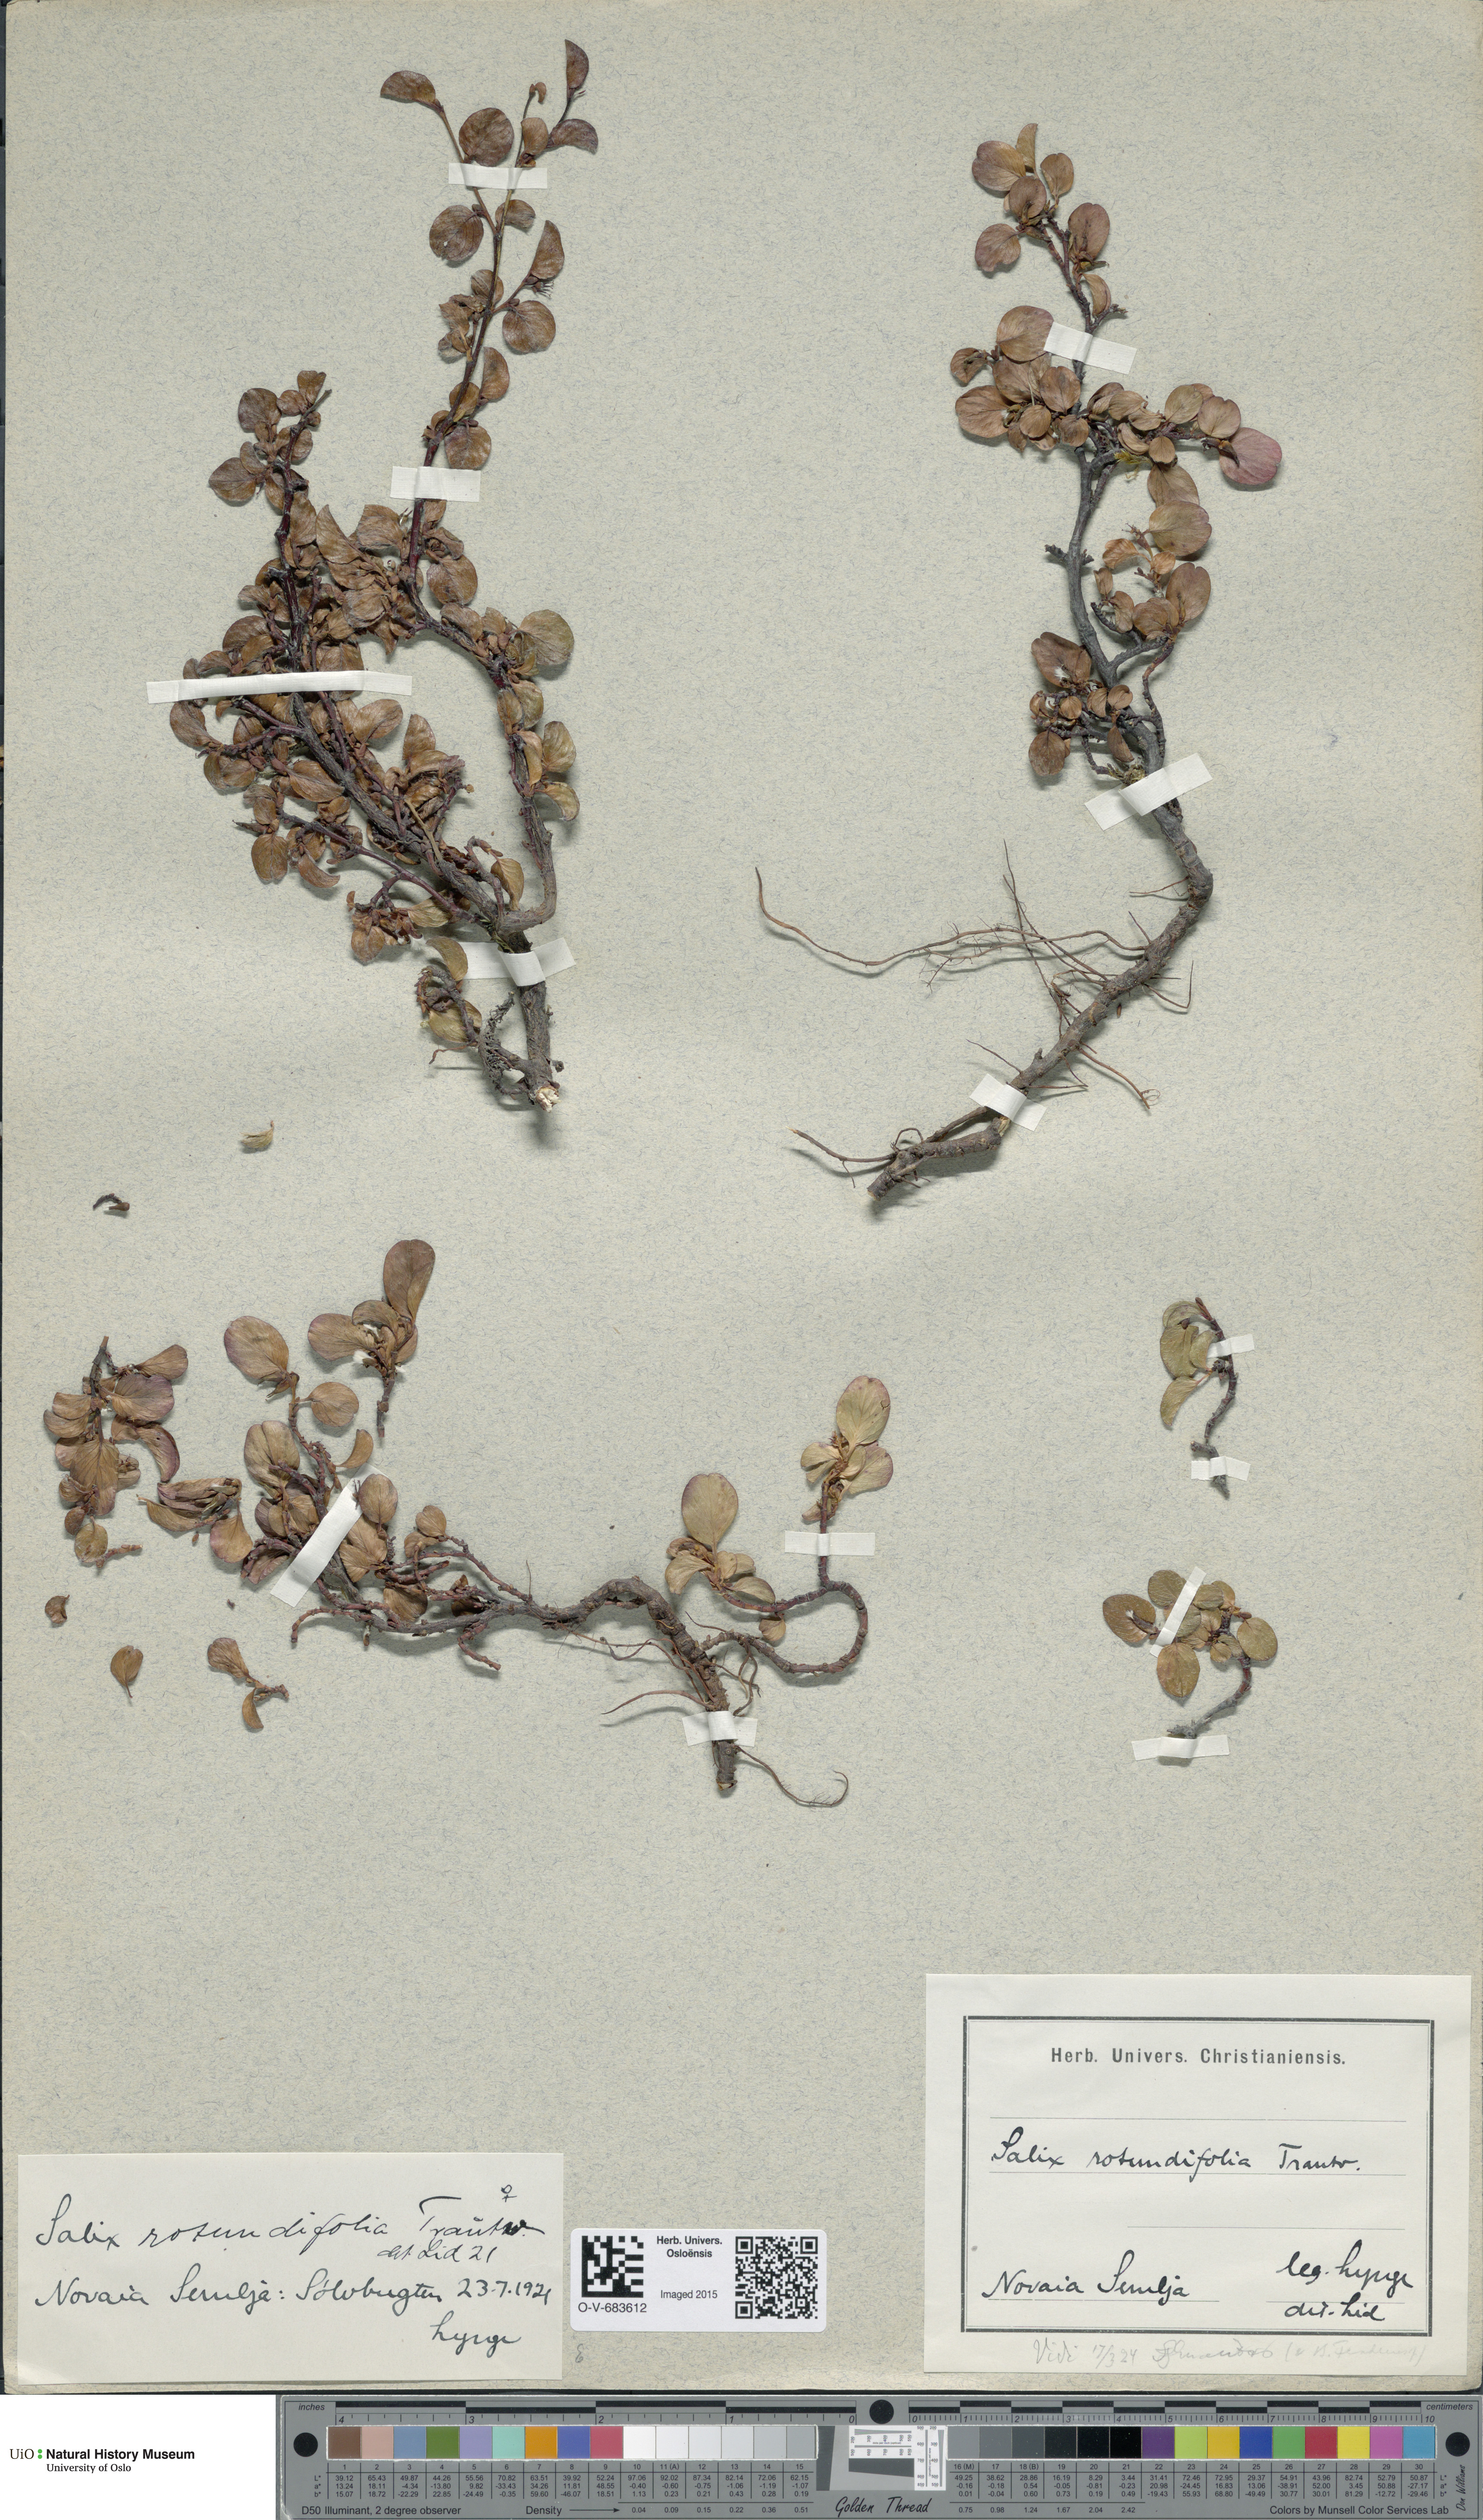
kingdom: Plantae
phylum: Tracheophyta
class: Magnoliopsida
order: Malpighiales
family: Salicaceae
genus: Salix
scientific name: Salix rotundifolia
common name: Least willow
